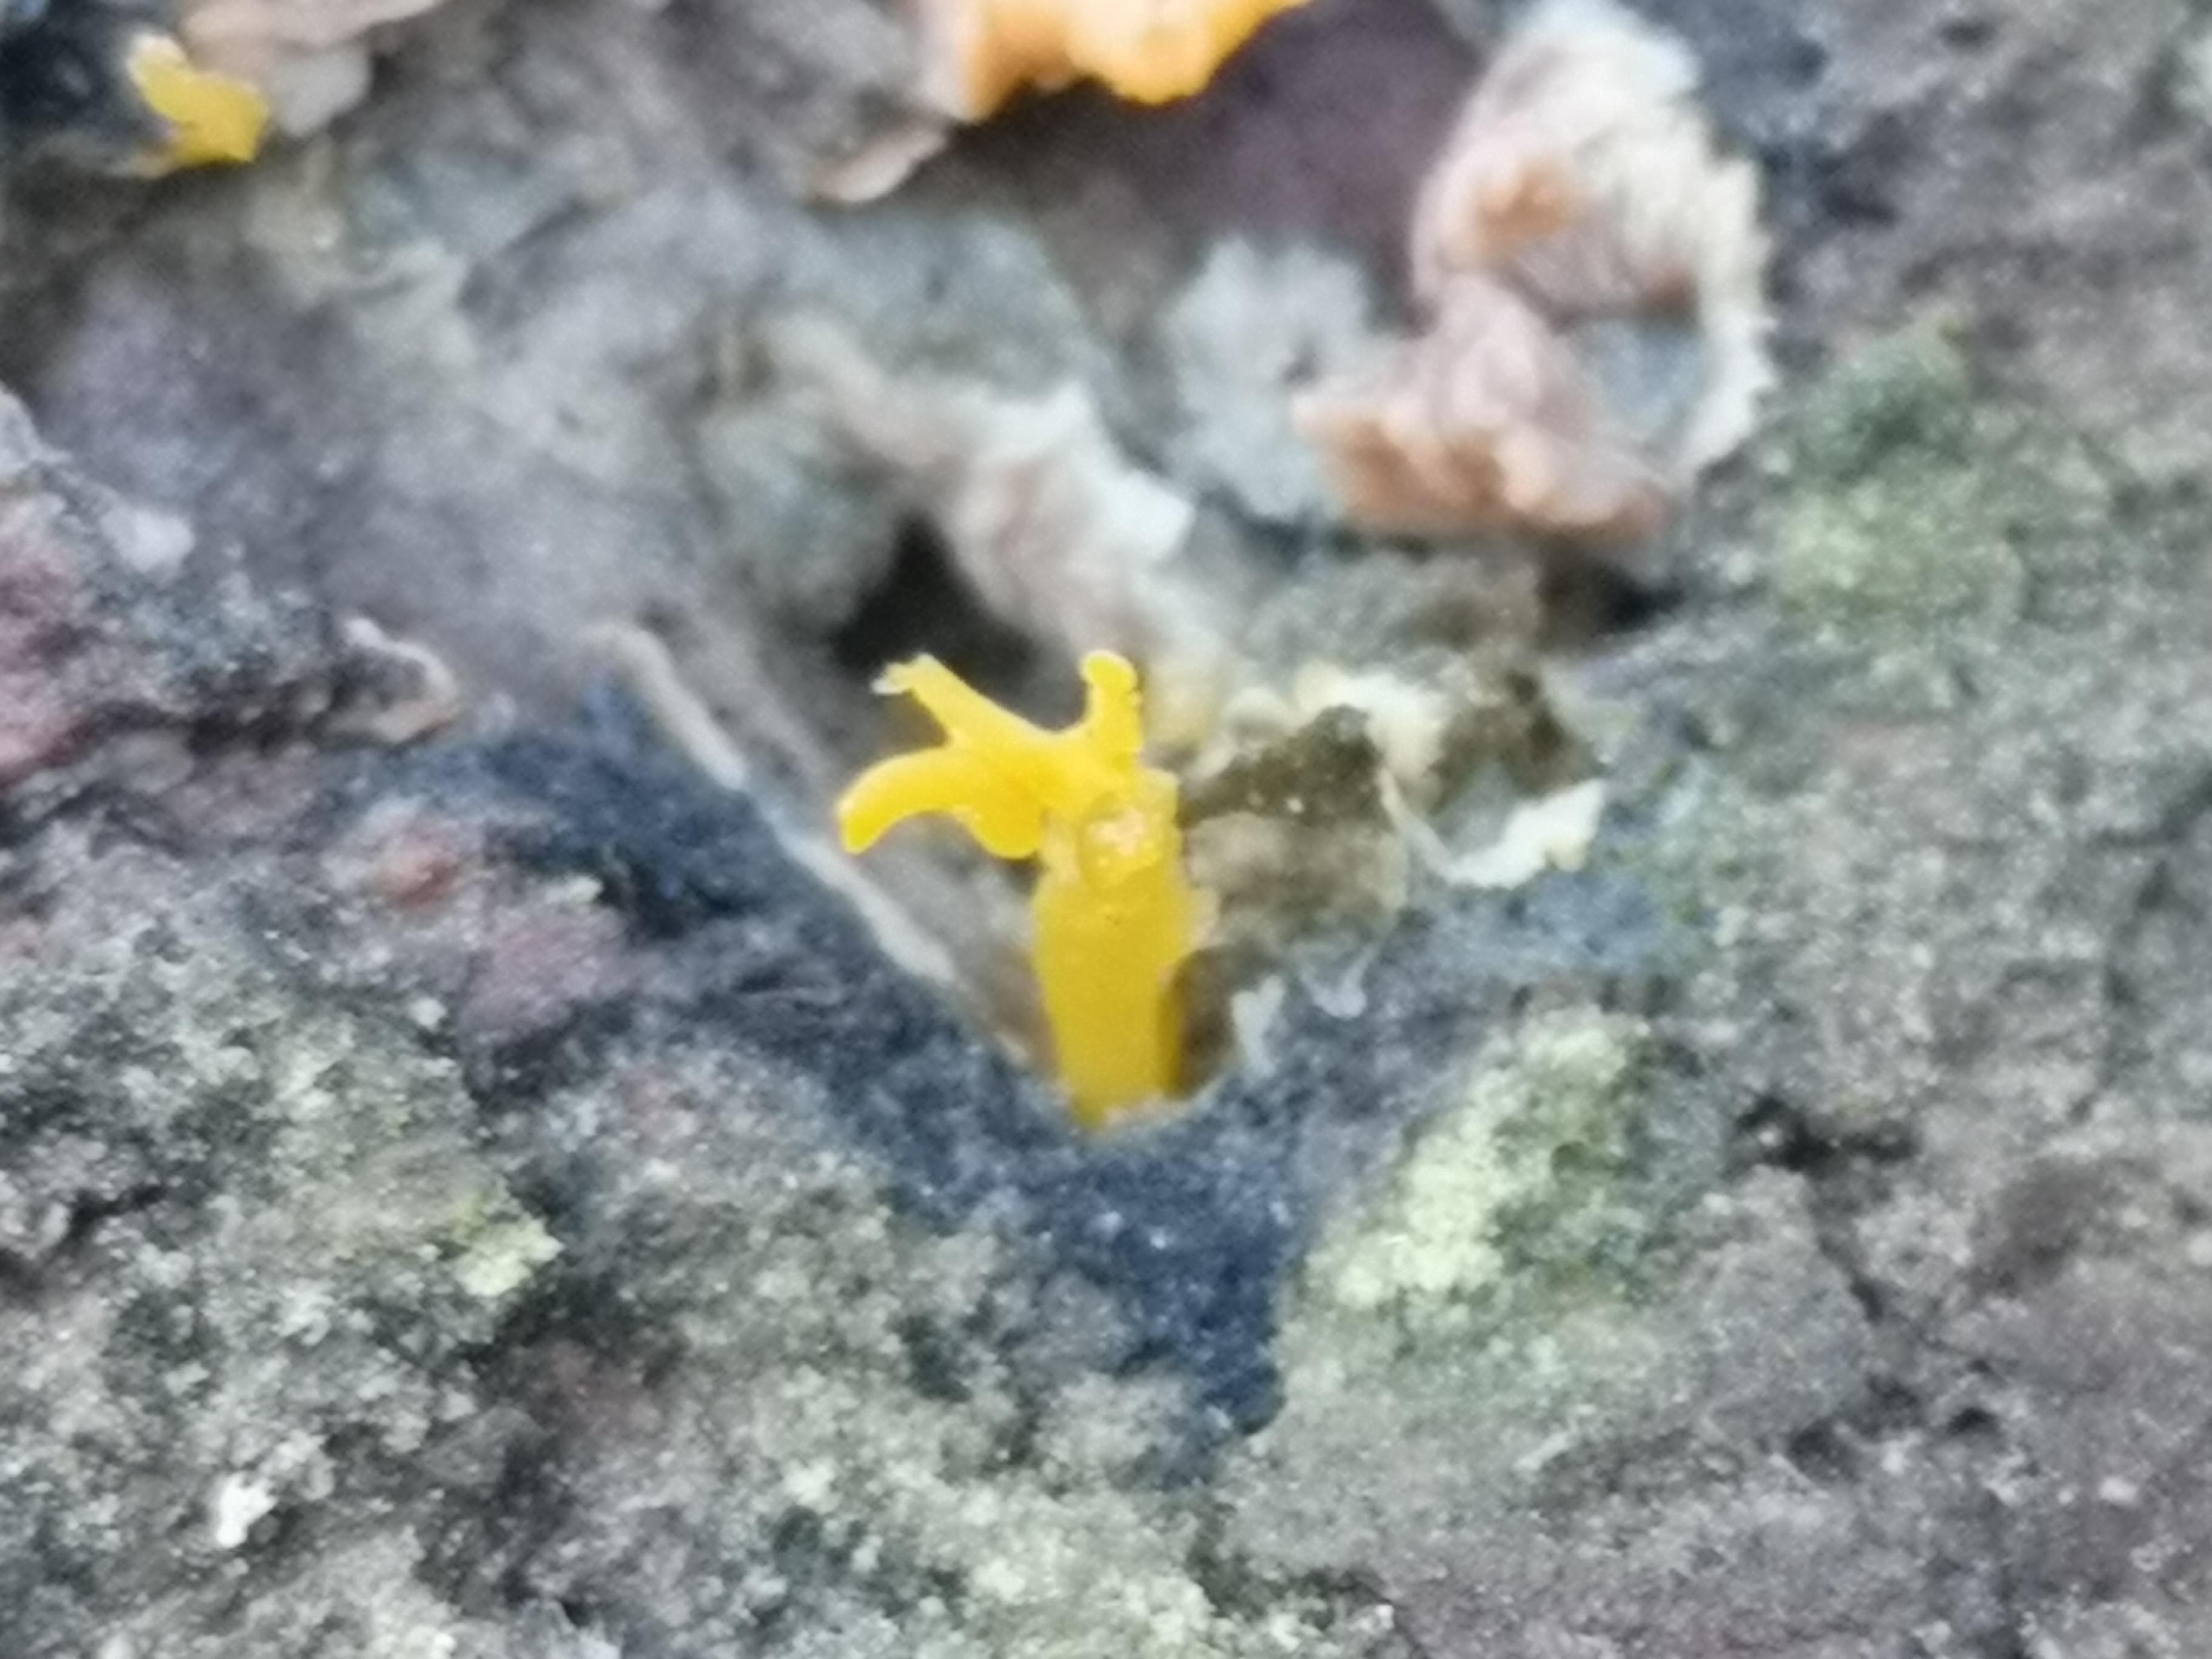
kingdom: Fungi
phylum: Basidiomycota
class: Dacrymycetes
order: Dacrymycetales
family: Dacrymycetaceae
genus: Calocera
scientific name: Calocera furcata
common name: fyrre-guldgaffel
